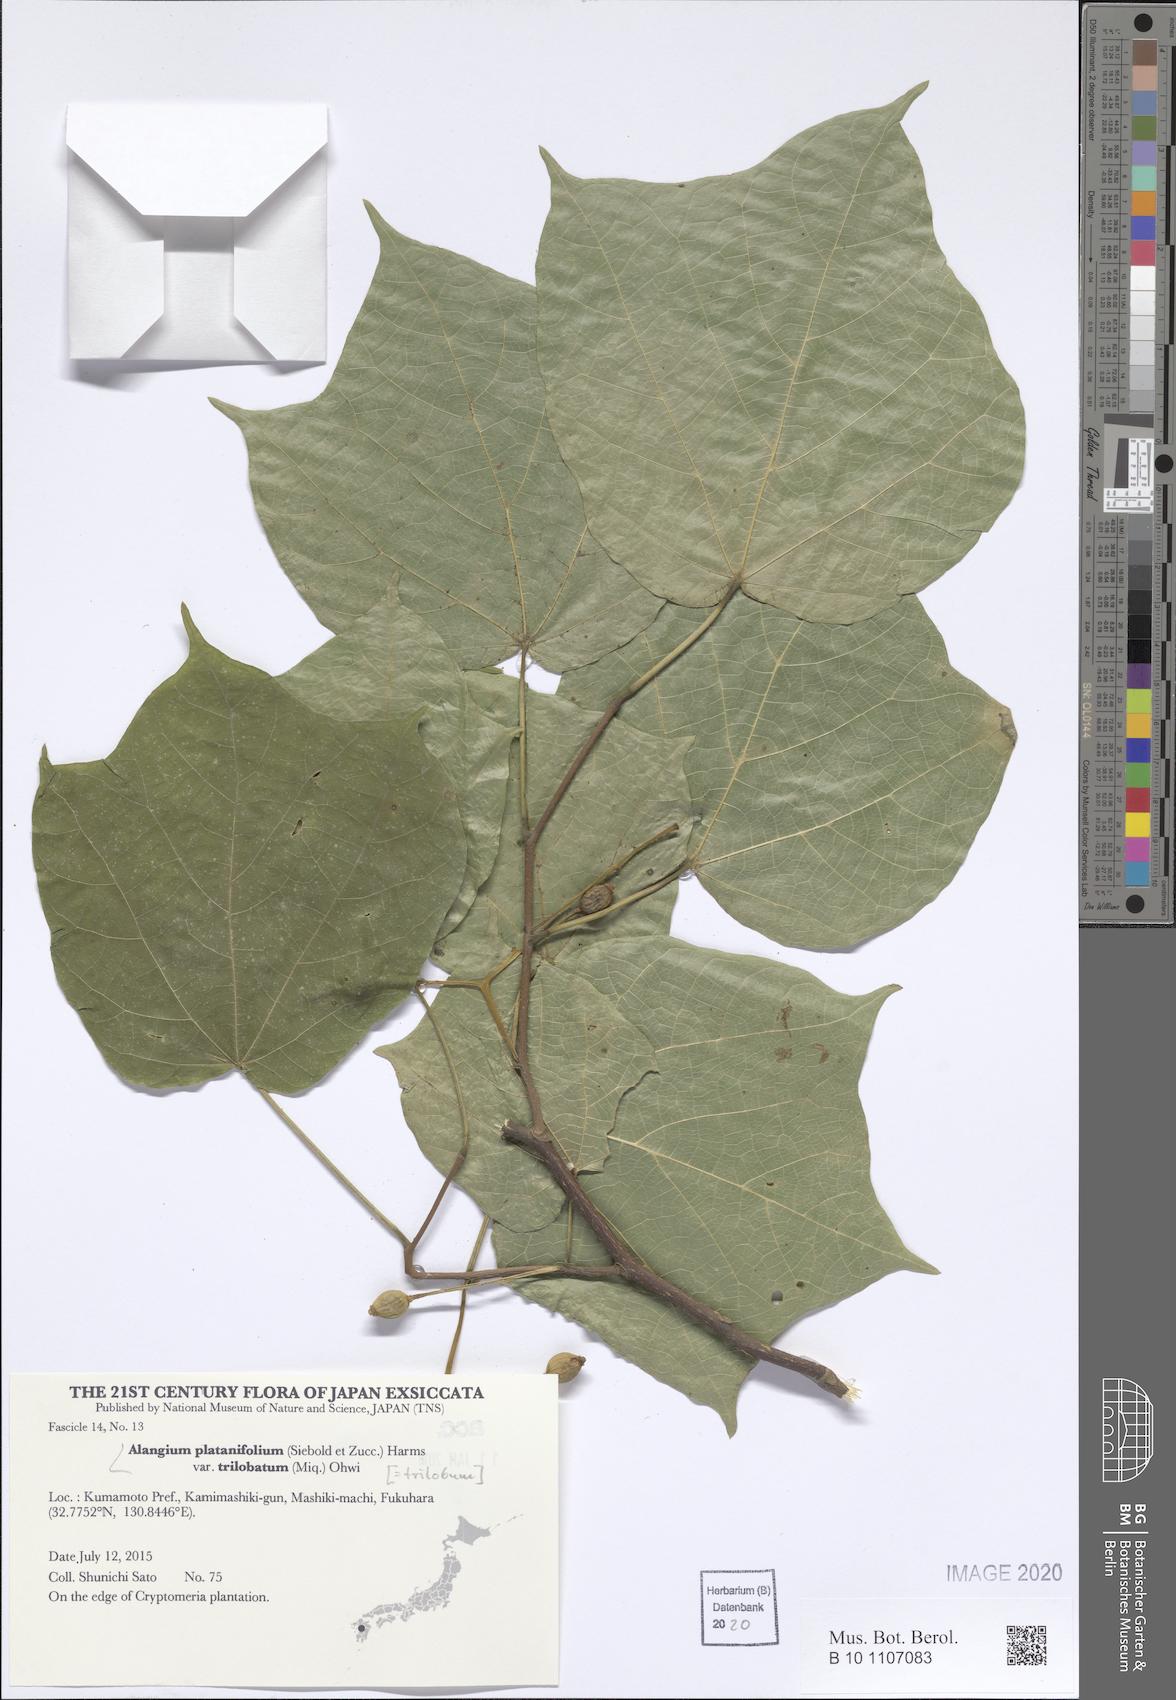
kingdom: Plantae
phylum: Tracheophyta
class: Magnoliopsida
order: Cornales
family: Cornaceae
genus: Alangium
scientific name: Alangium platanifolium
